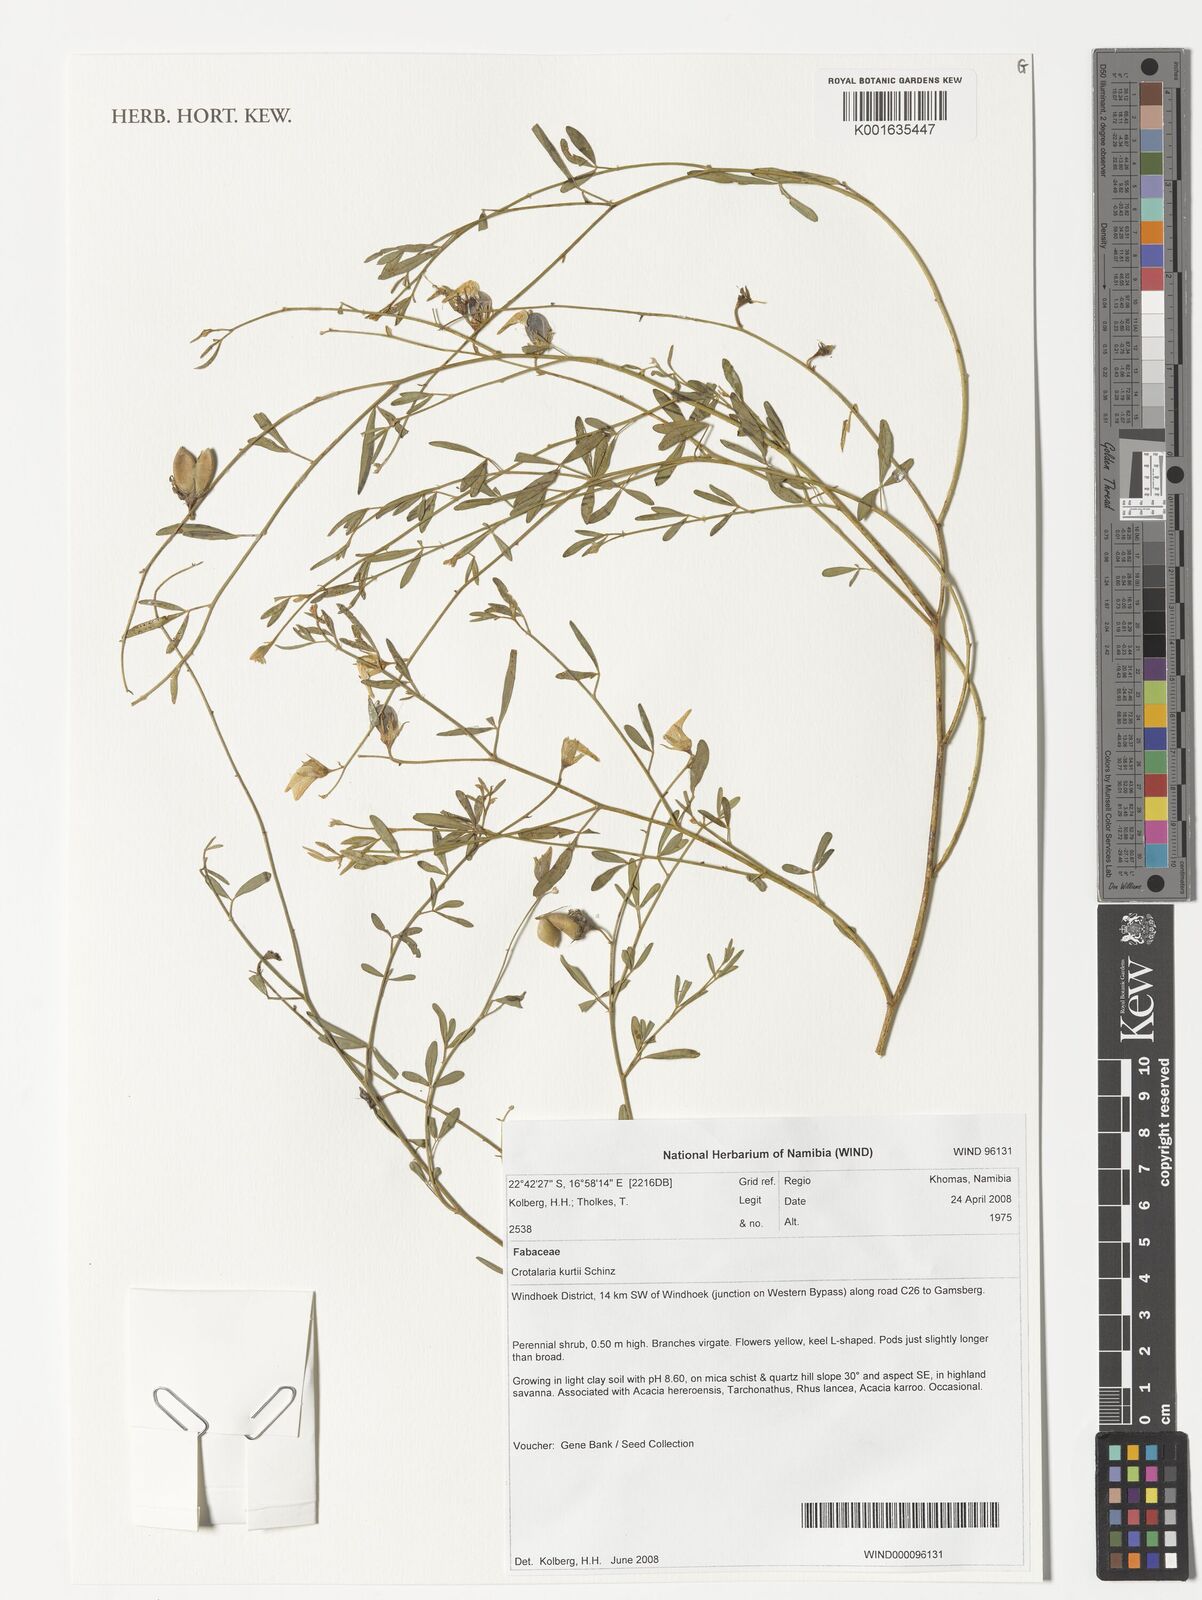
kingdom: Plantae
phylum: Tracheophyta
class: Magnoliopsida
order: Fabales
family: Fabaceae
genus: Crotalaria
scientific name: Crotalaria kurtii
